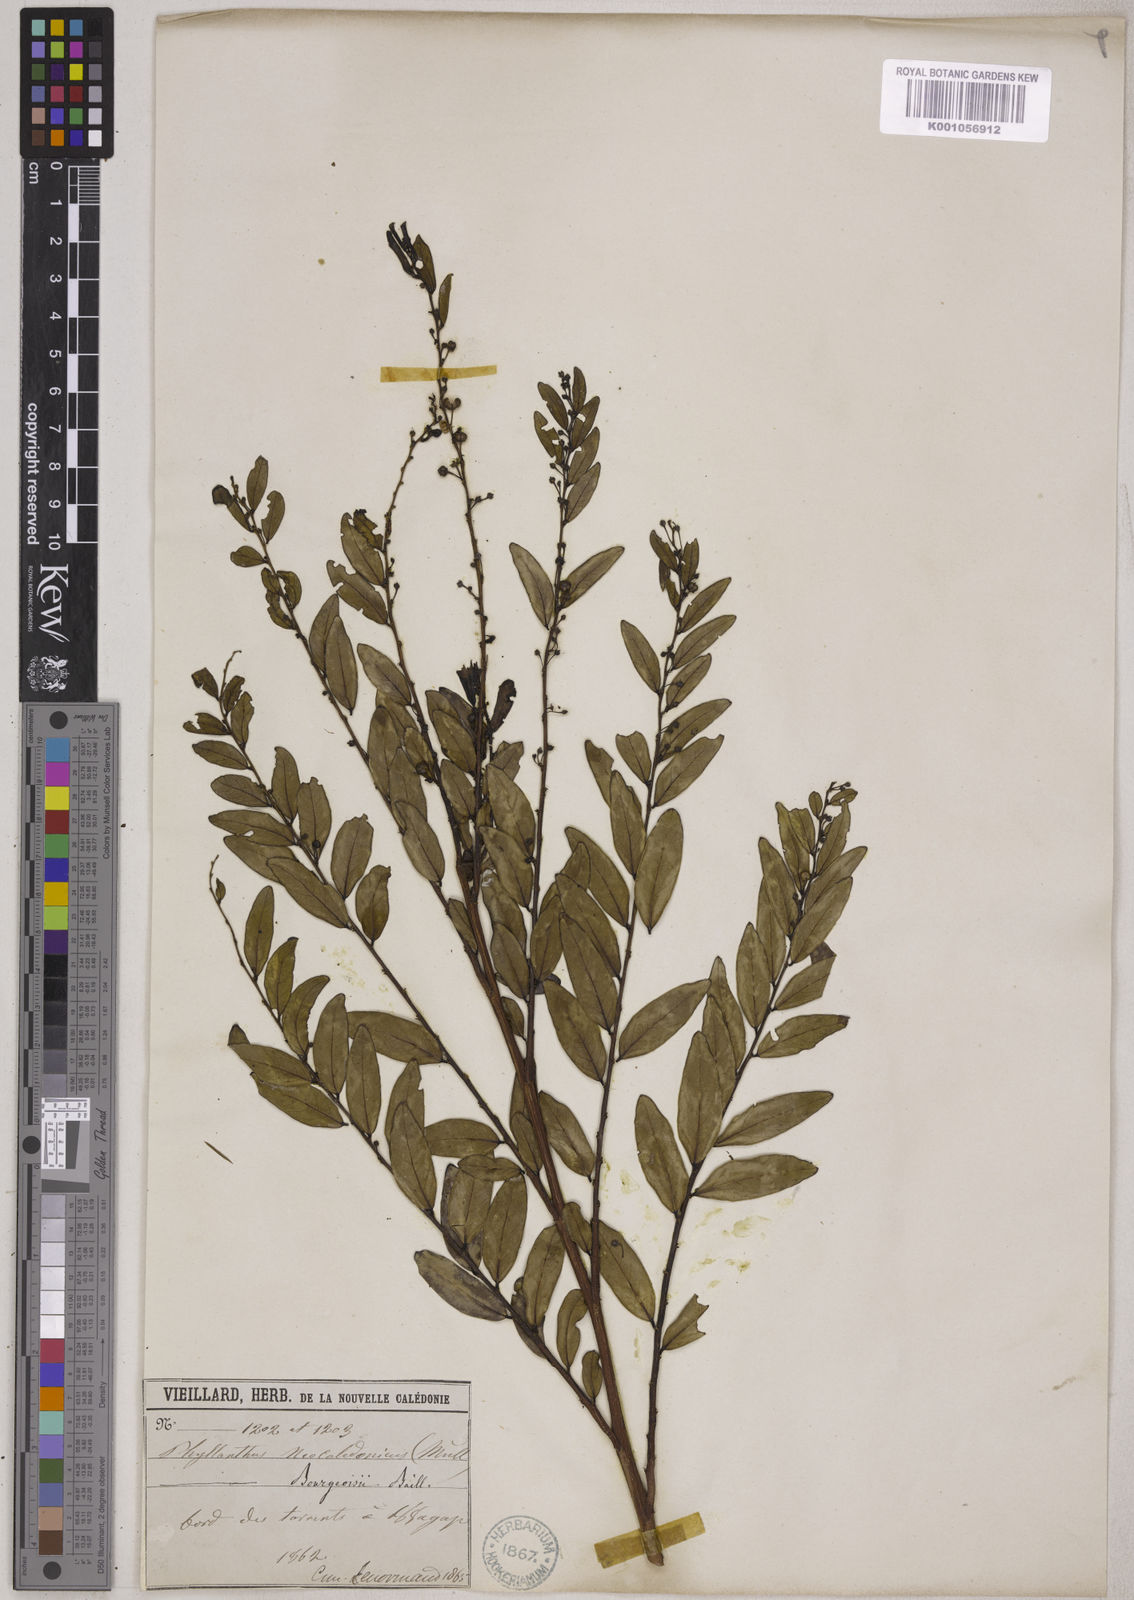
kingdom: Plantae
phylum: Tracheophyta
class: Magnoliopsida
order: Malpighiales
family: Phyllanthaceae
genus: Phyllanthus
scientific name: Phyllanthus bourgeoisii
